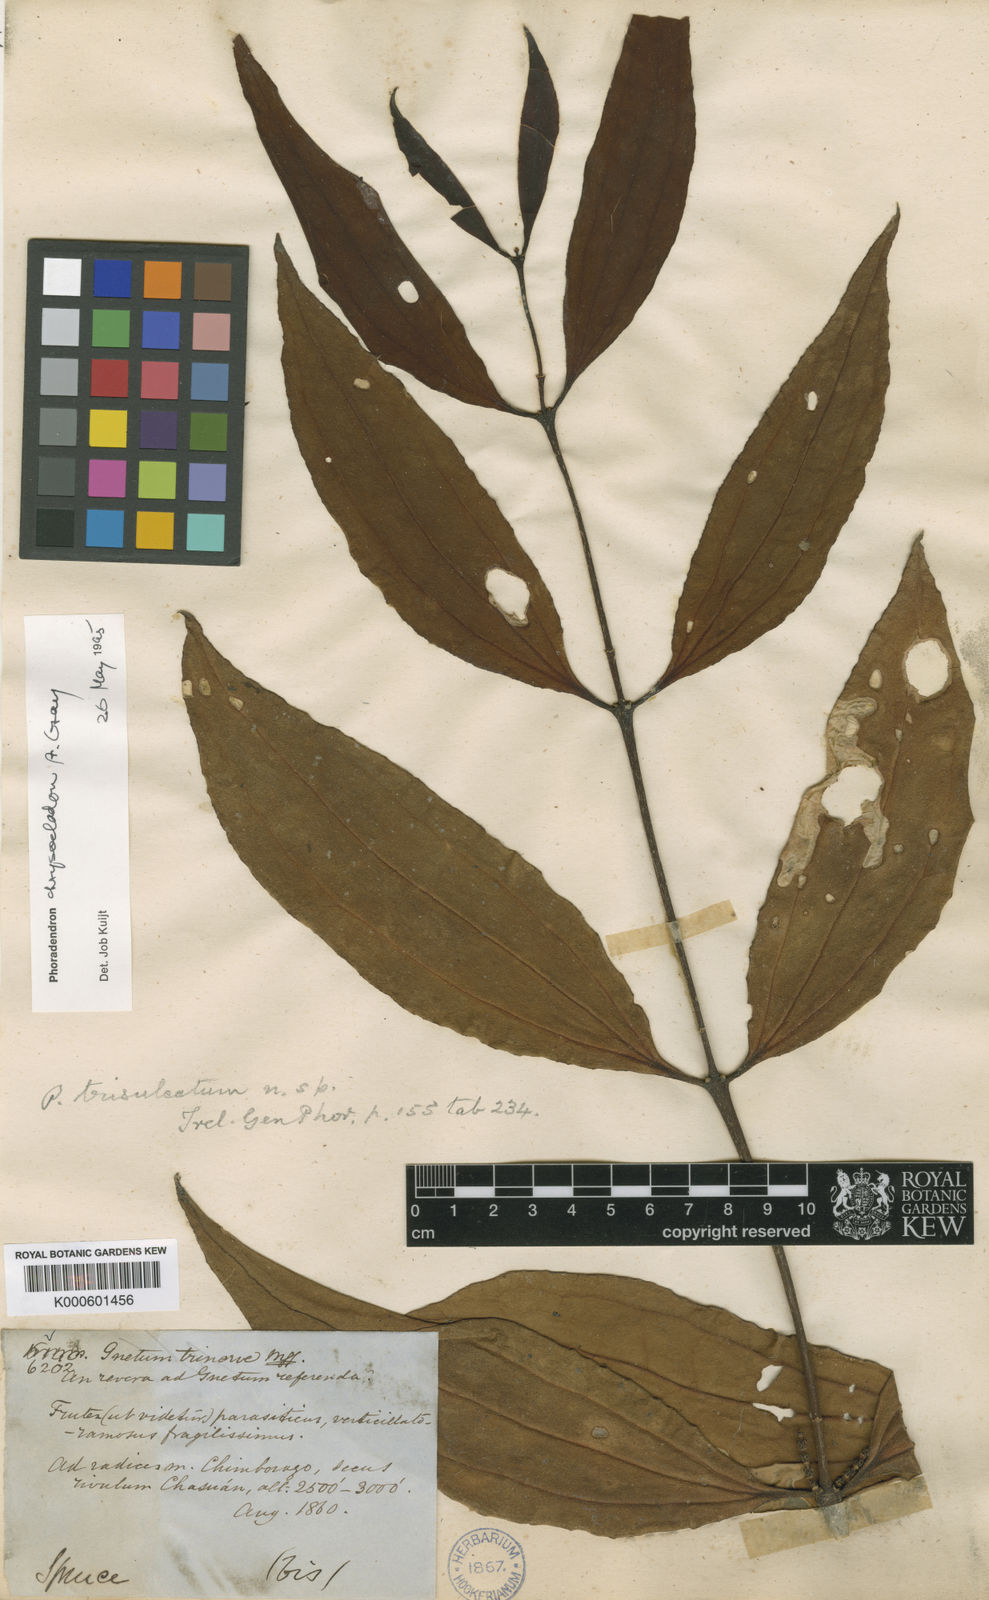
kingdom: Plantae
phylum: Tracheophyta
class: Magnoliopsida
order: Santalales
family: Viscaceae
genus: Phoradendron
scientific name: Phoradendron chrysocladon
